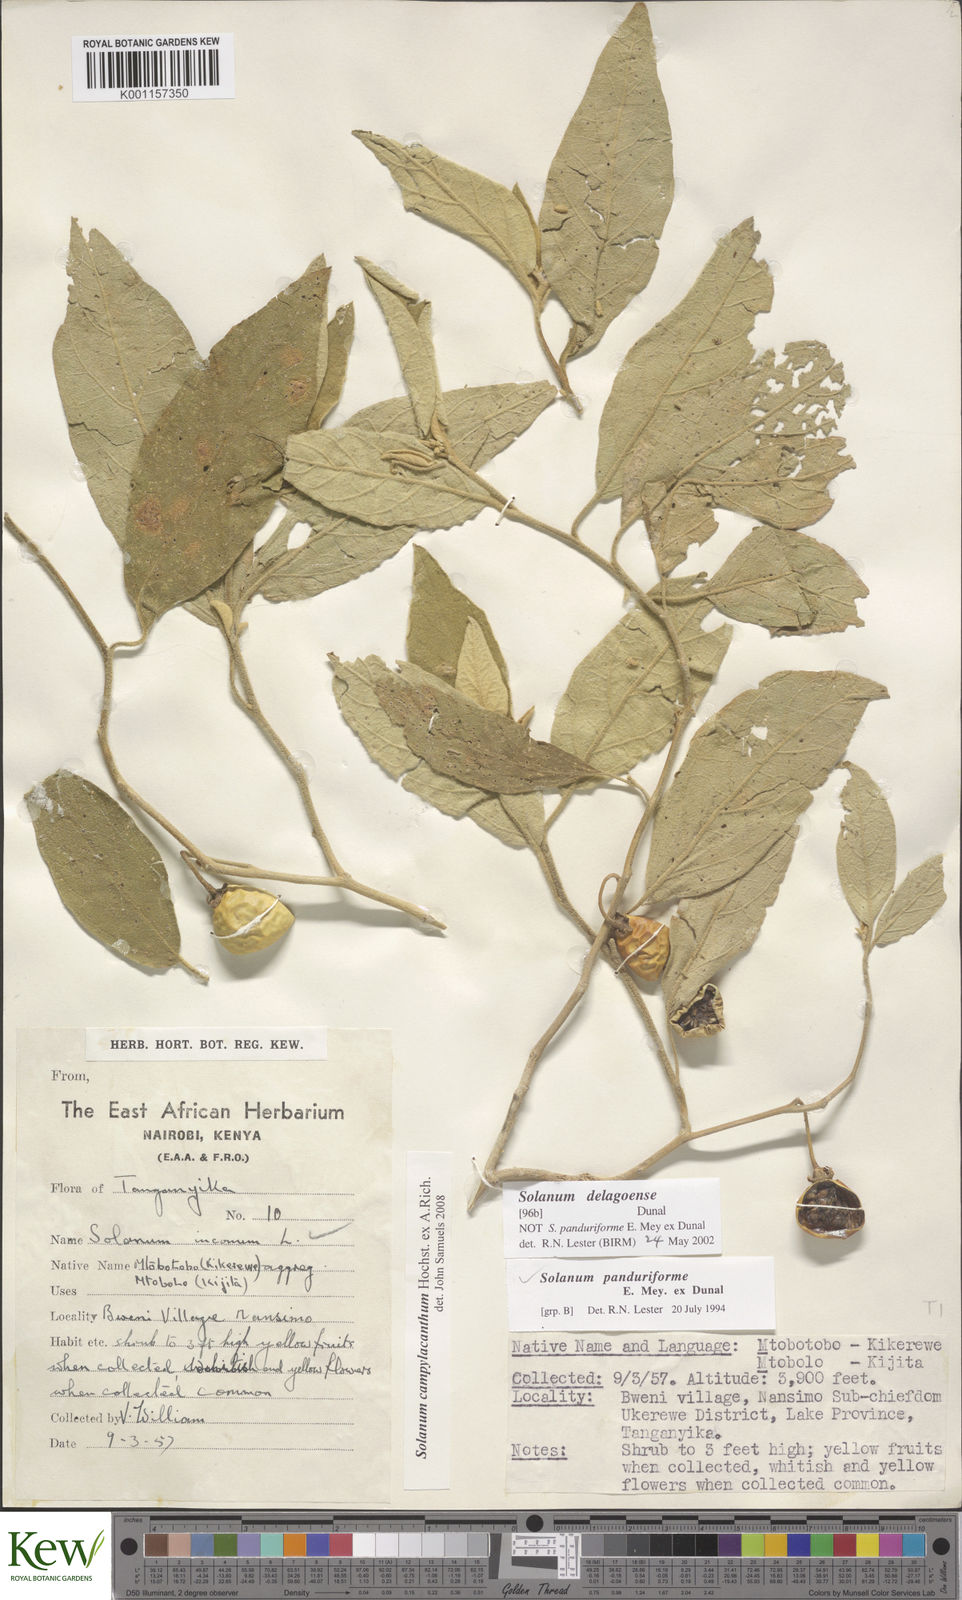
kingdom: Plantae
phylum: Tracheophyta
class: Magnoliopsida
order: Solanales
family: Solanaceae
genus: Solanum
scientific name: Solanum campylacanthum
